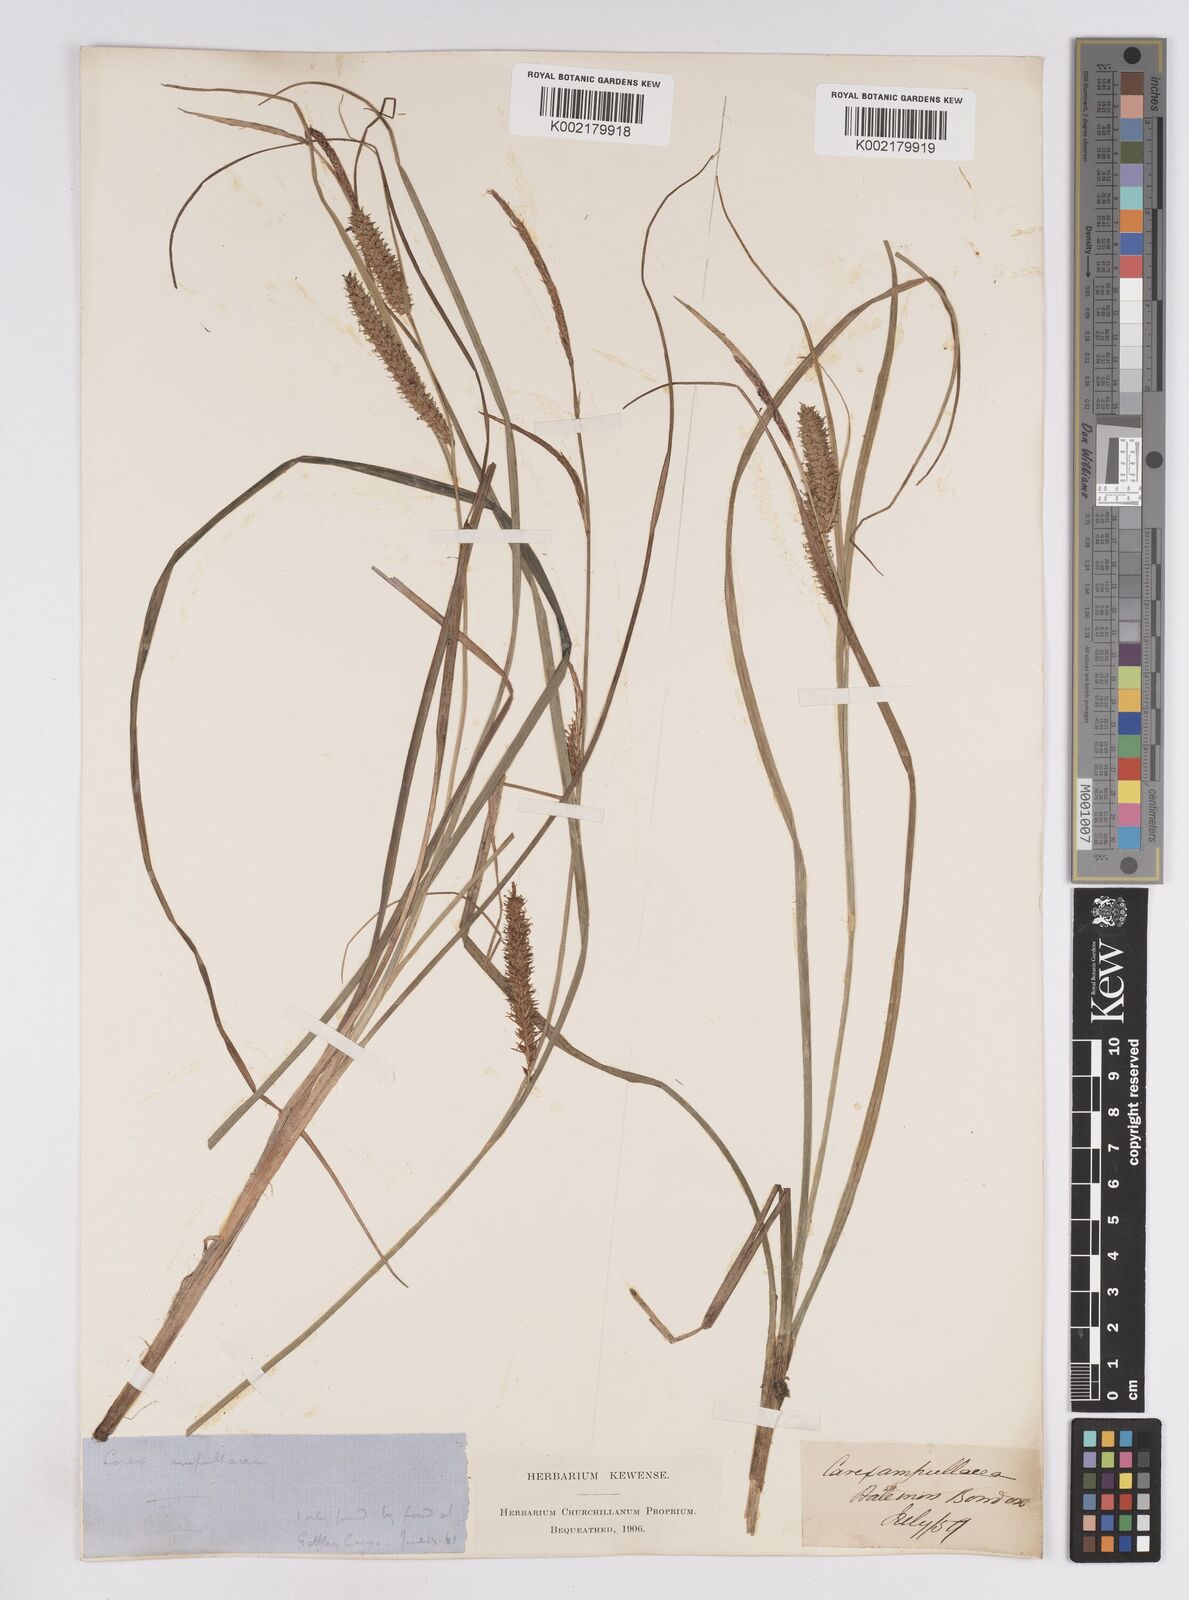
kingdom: Plantae
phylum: Tracheophyta
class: Liliopsida
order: Poales
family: Cyperaceae
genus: Carex
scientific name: Carex rostrata
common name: Bottle sedge
